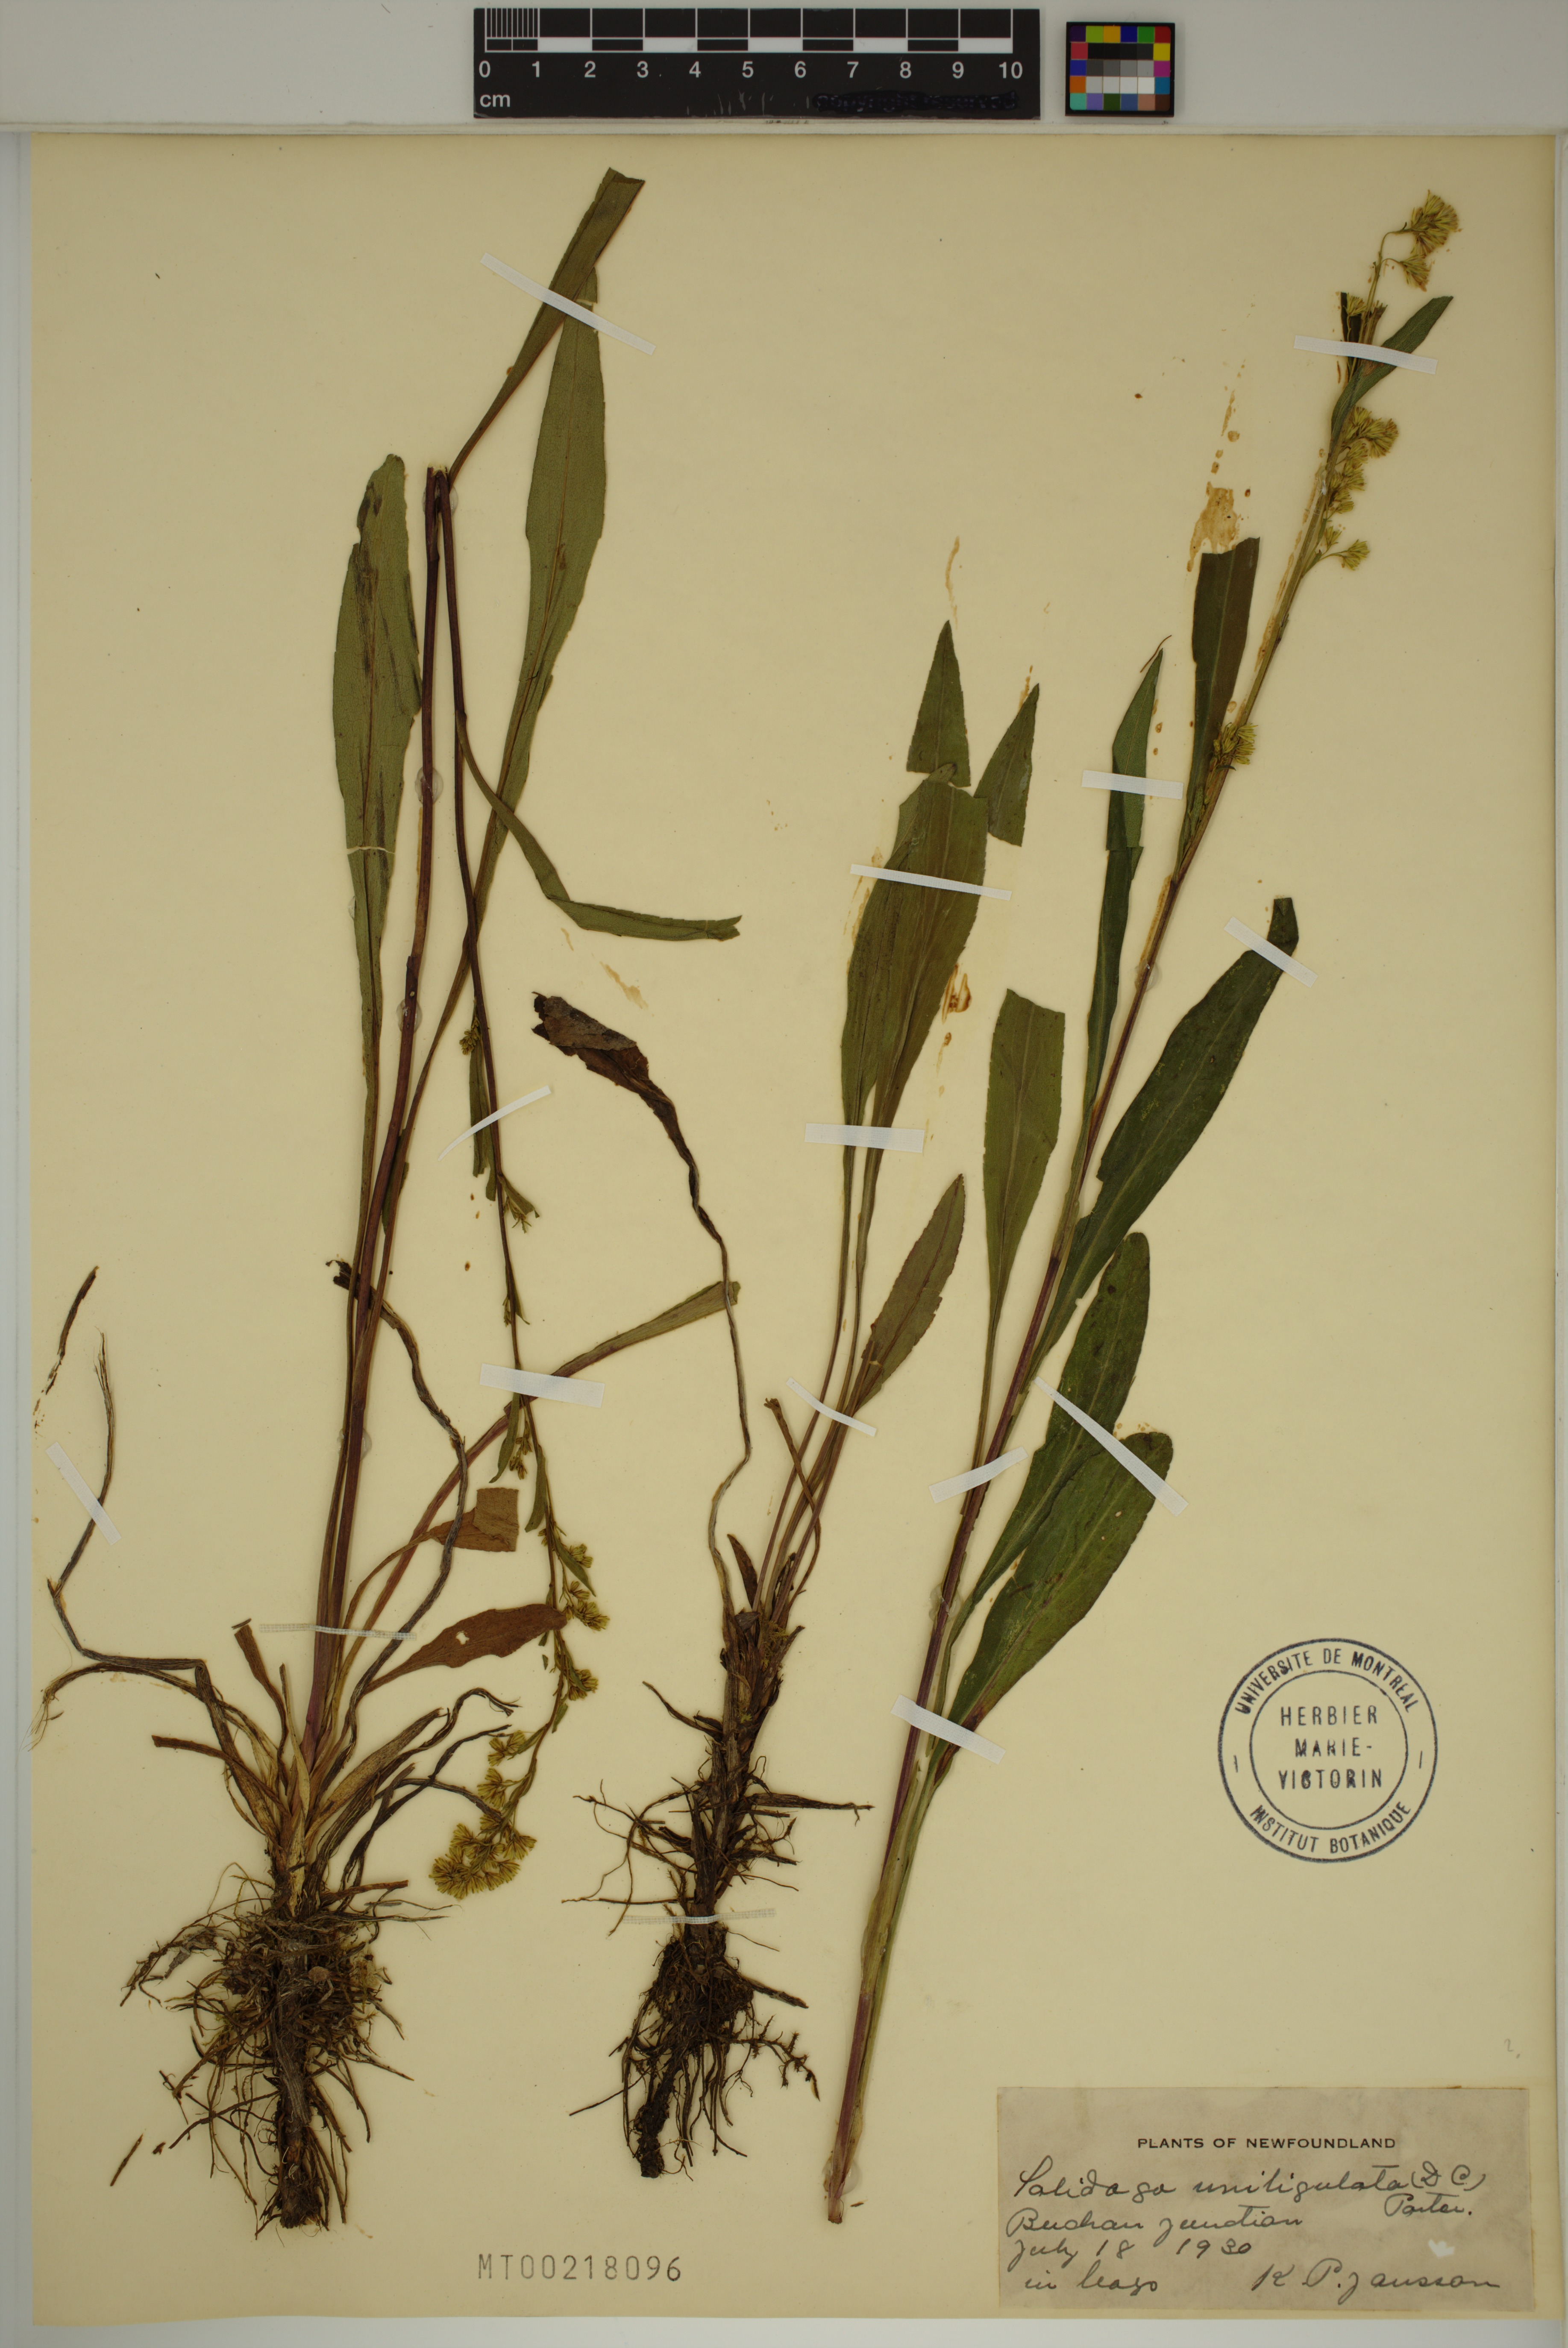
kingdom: Plantae
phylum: Tracheophyta
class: Magnoliopsida
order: Asterales
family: Asteraceae
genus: Solidago
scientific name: Solidago uliginosa
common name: Bog goldenrod
